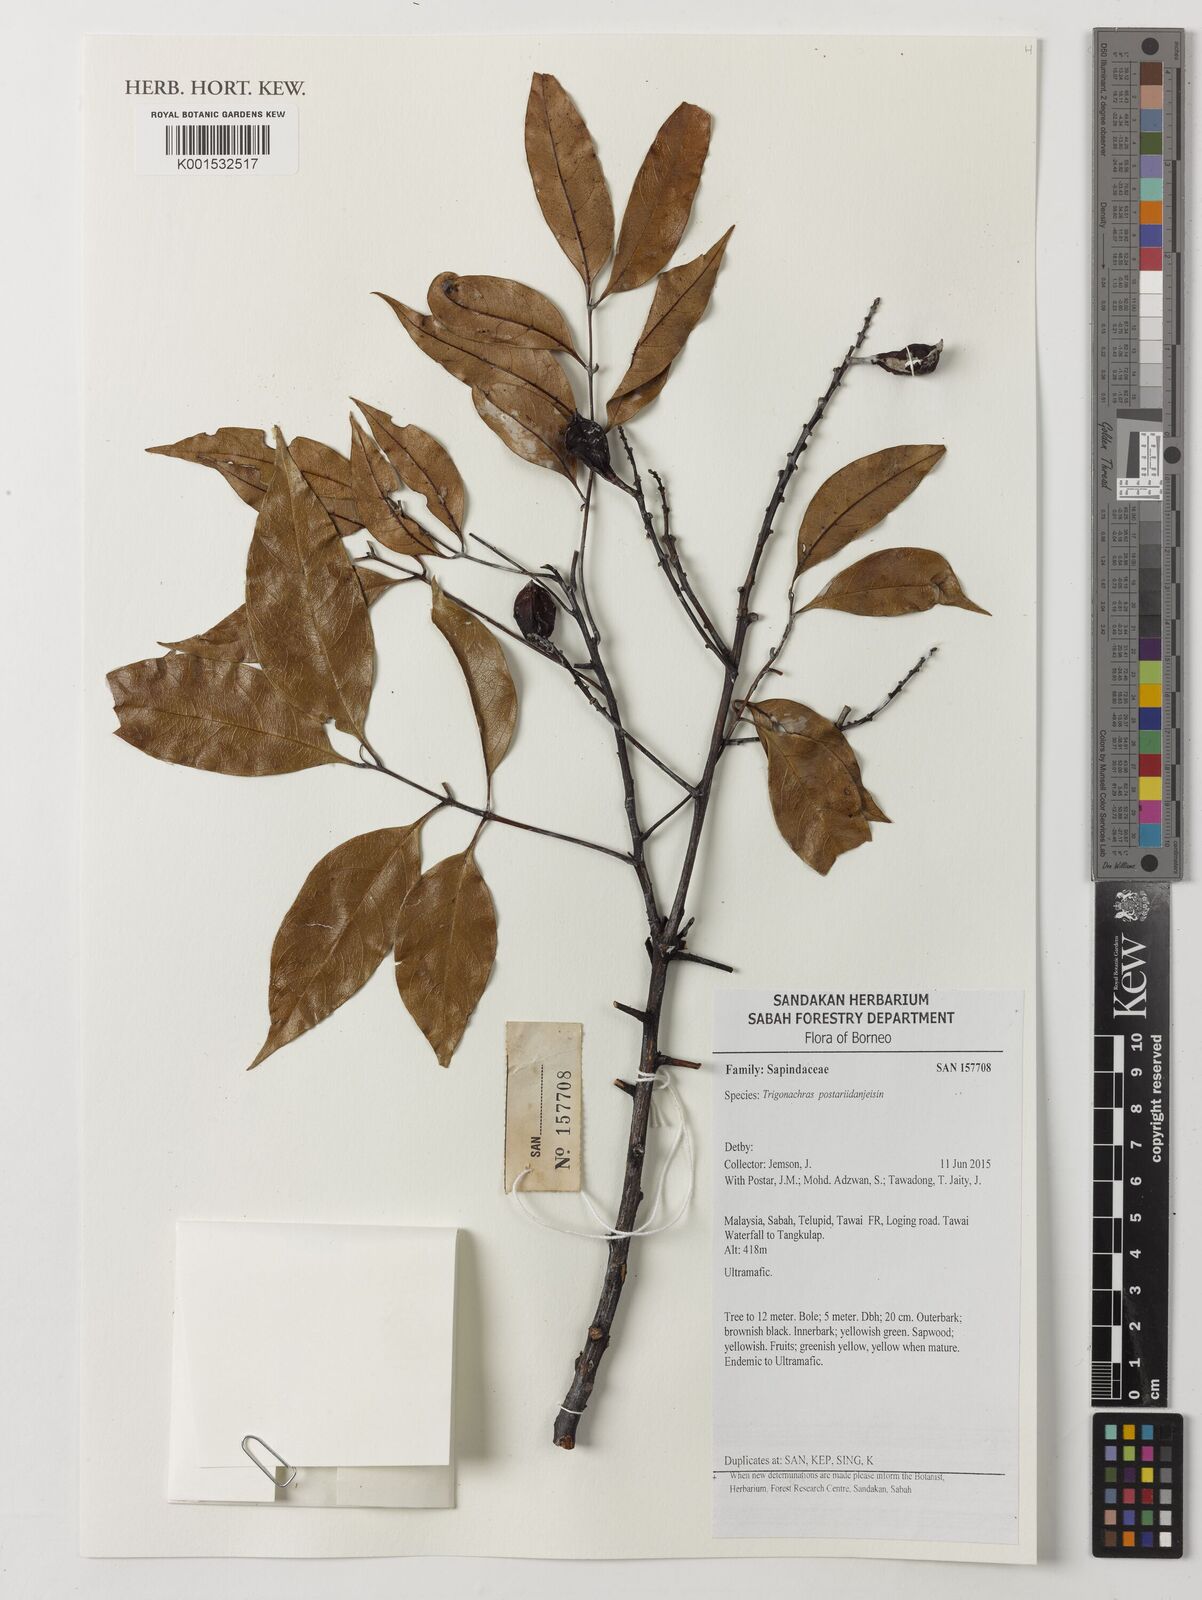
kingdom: Plantae
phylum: Tracheophyta
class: Magnoliopsida
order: Sapindales
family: Sapindaceae
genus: Trigonachras
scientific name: Trigonachras postardanjeisin
